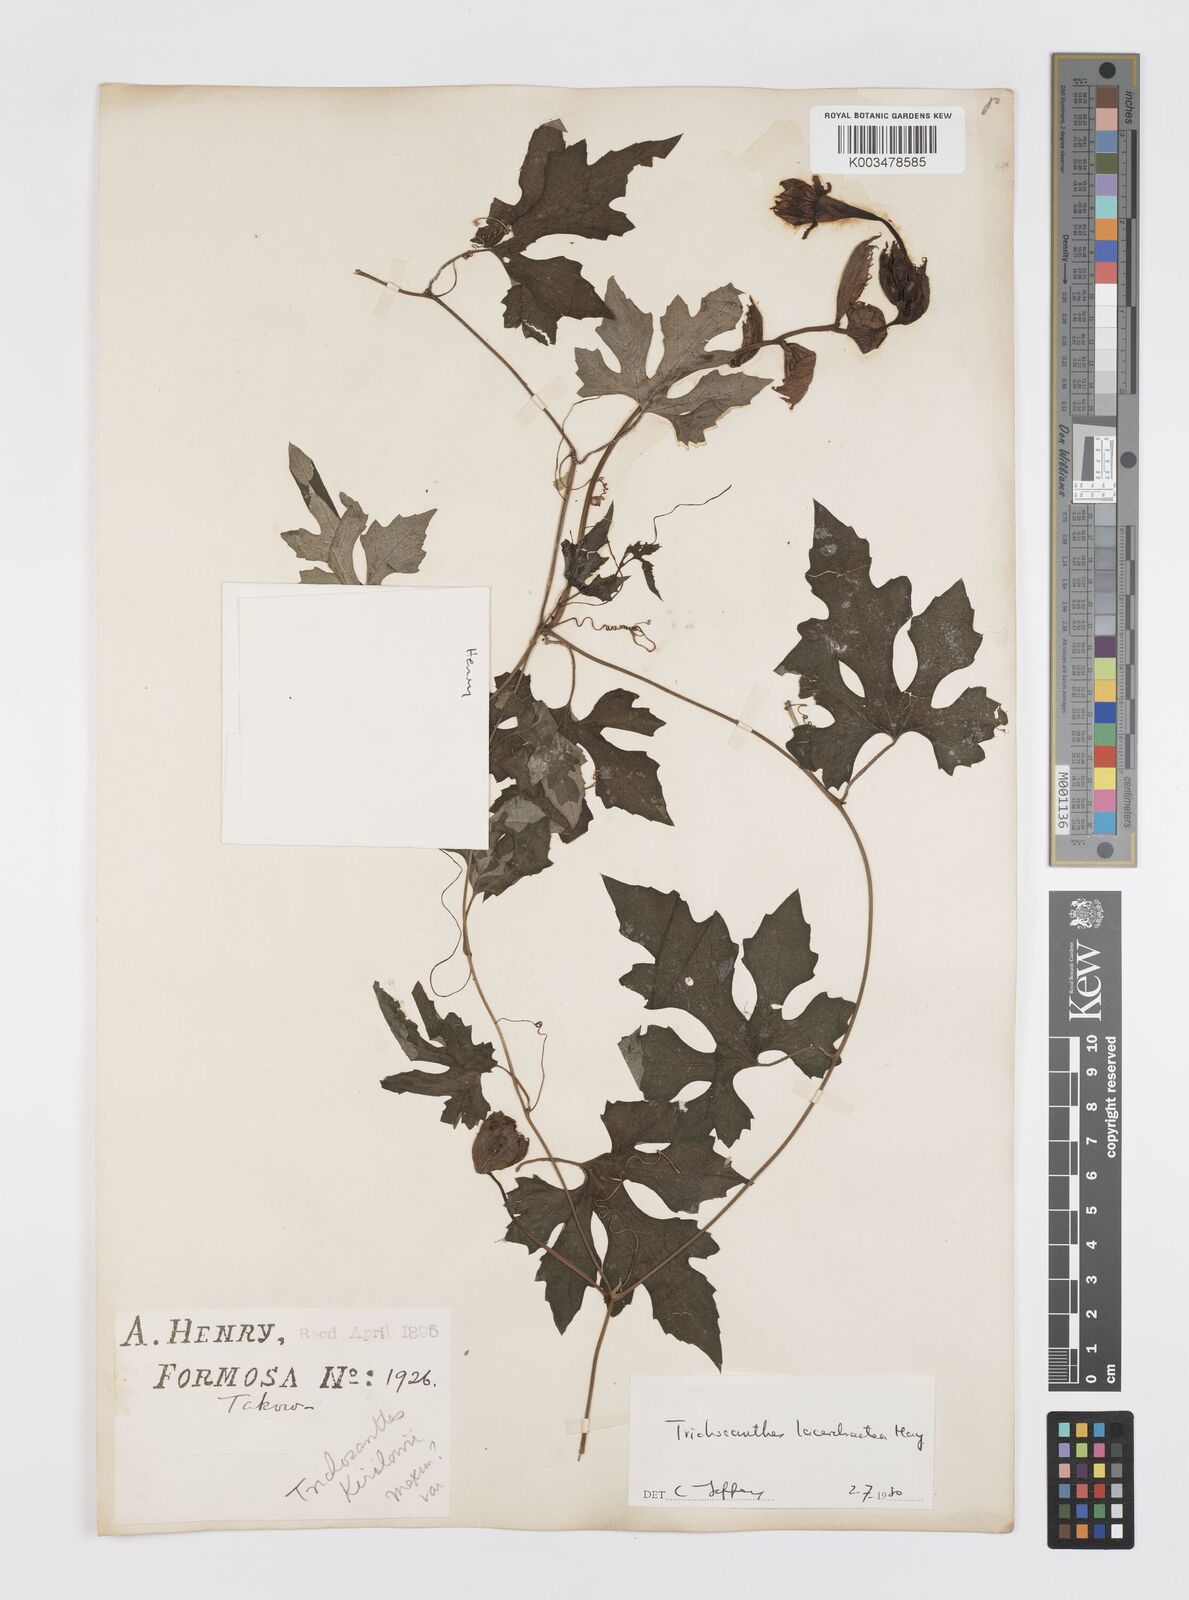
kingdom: Plantae
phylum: Tracheophyta
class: Magnoliopsida
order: Cucurbitales
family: Cucurbitaceae
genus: Trichosanthes
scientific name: Trichosanthes laceribractea
